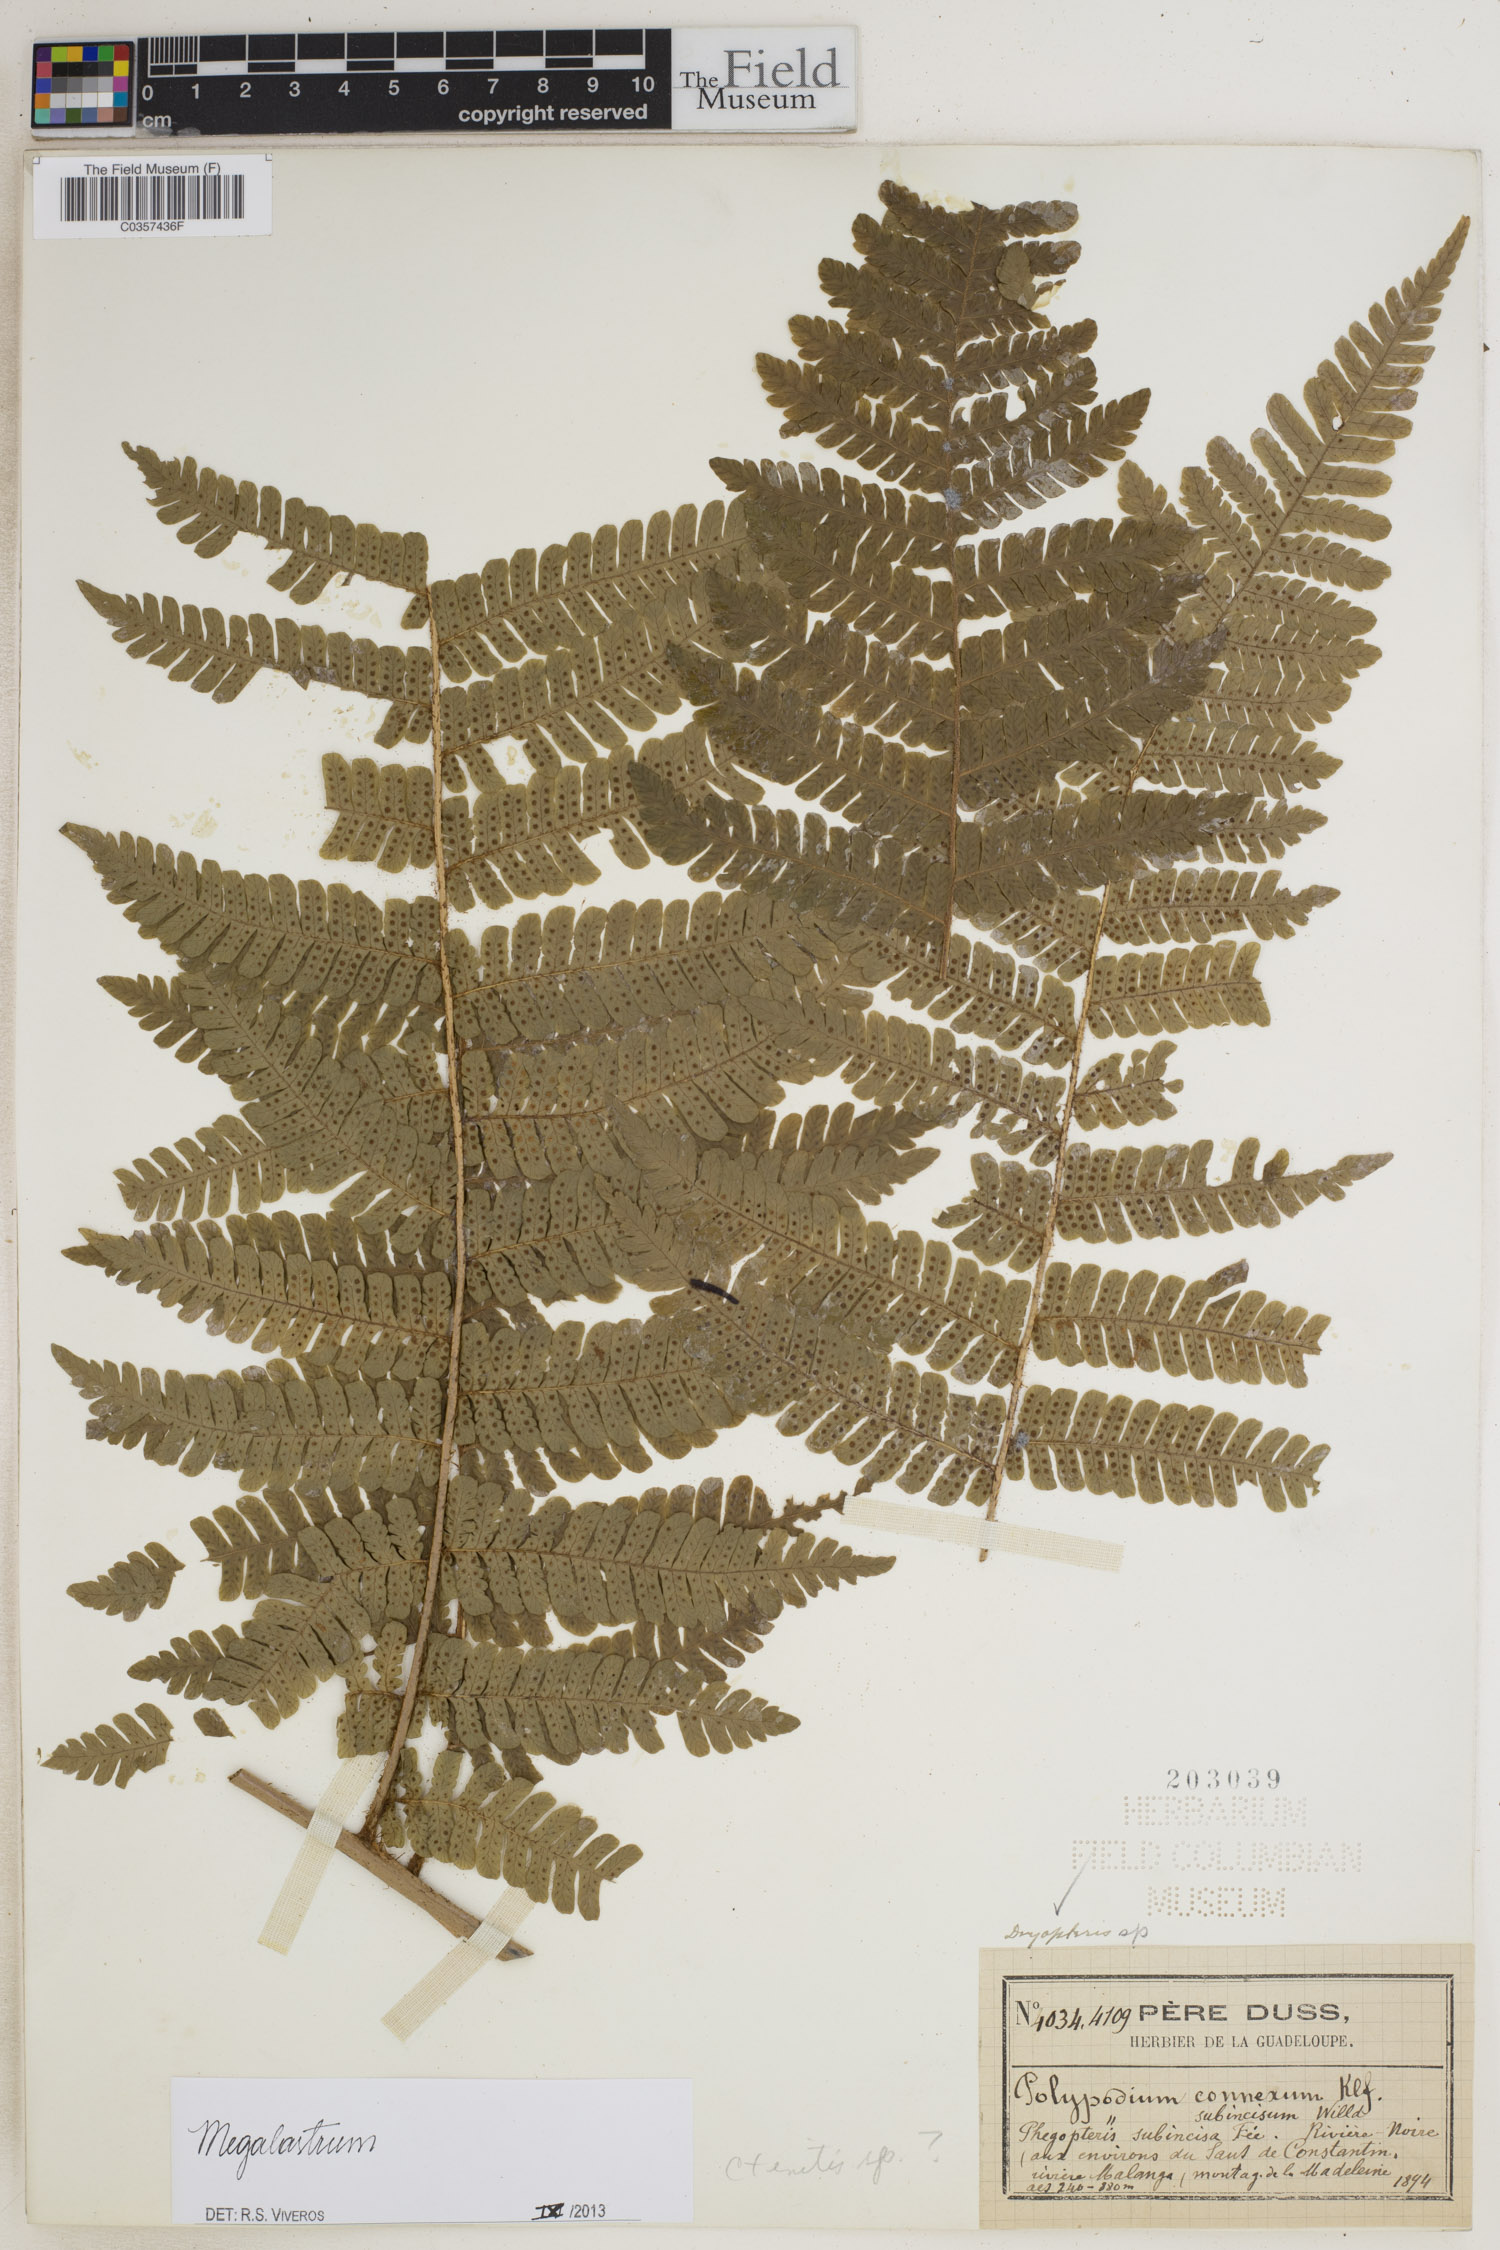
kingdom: Plantae
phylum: Tracheophyta
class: Polypodiopsida
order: Polypodiales
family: Dryopteridaceae
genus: Megalastrum
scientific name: Megalastrum
